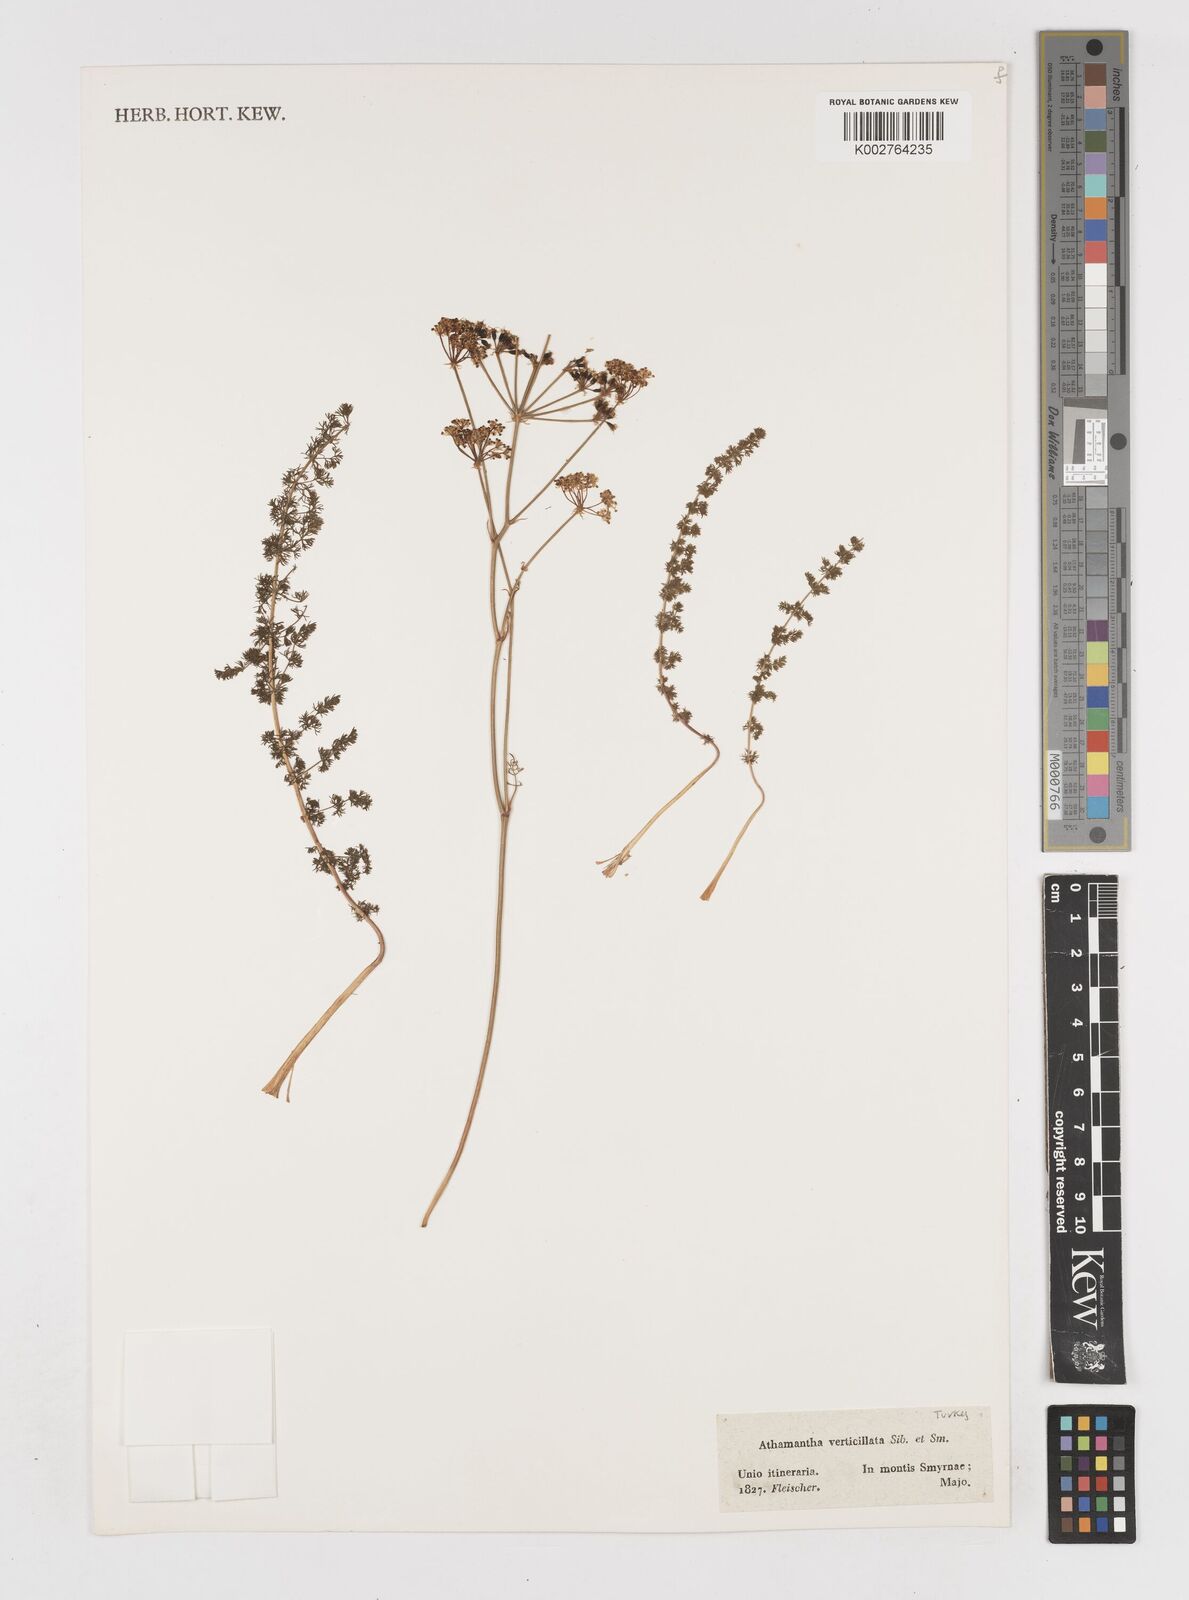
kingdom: Plantae
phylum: Tracheophyta
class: Magnoliopsida
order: Apiales
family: Apiaceae
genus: Carum
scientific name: Carum graecum
